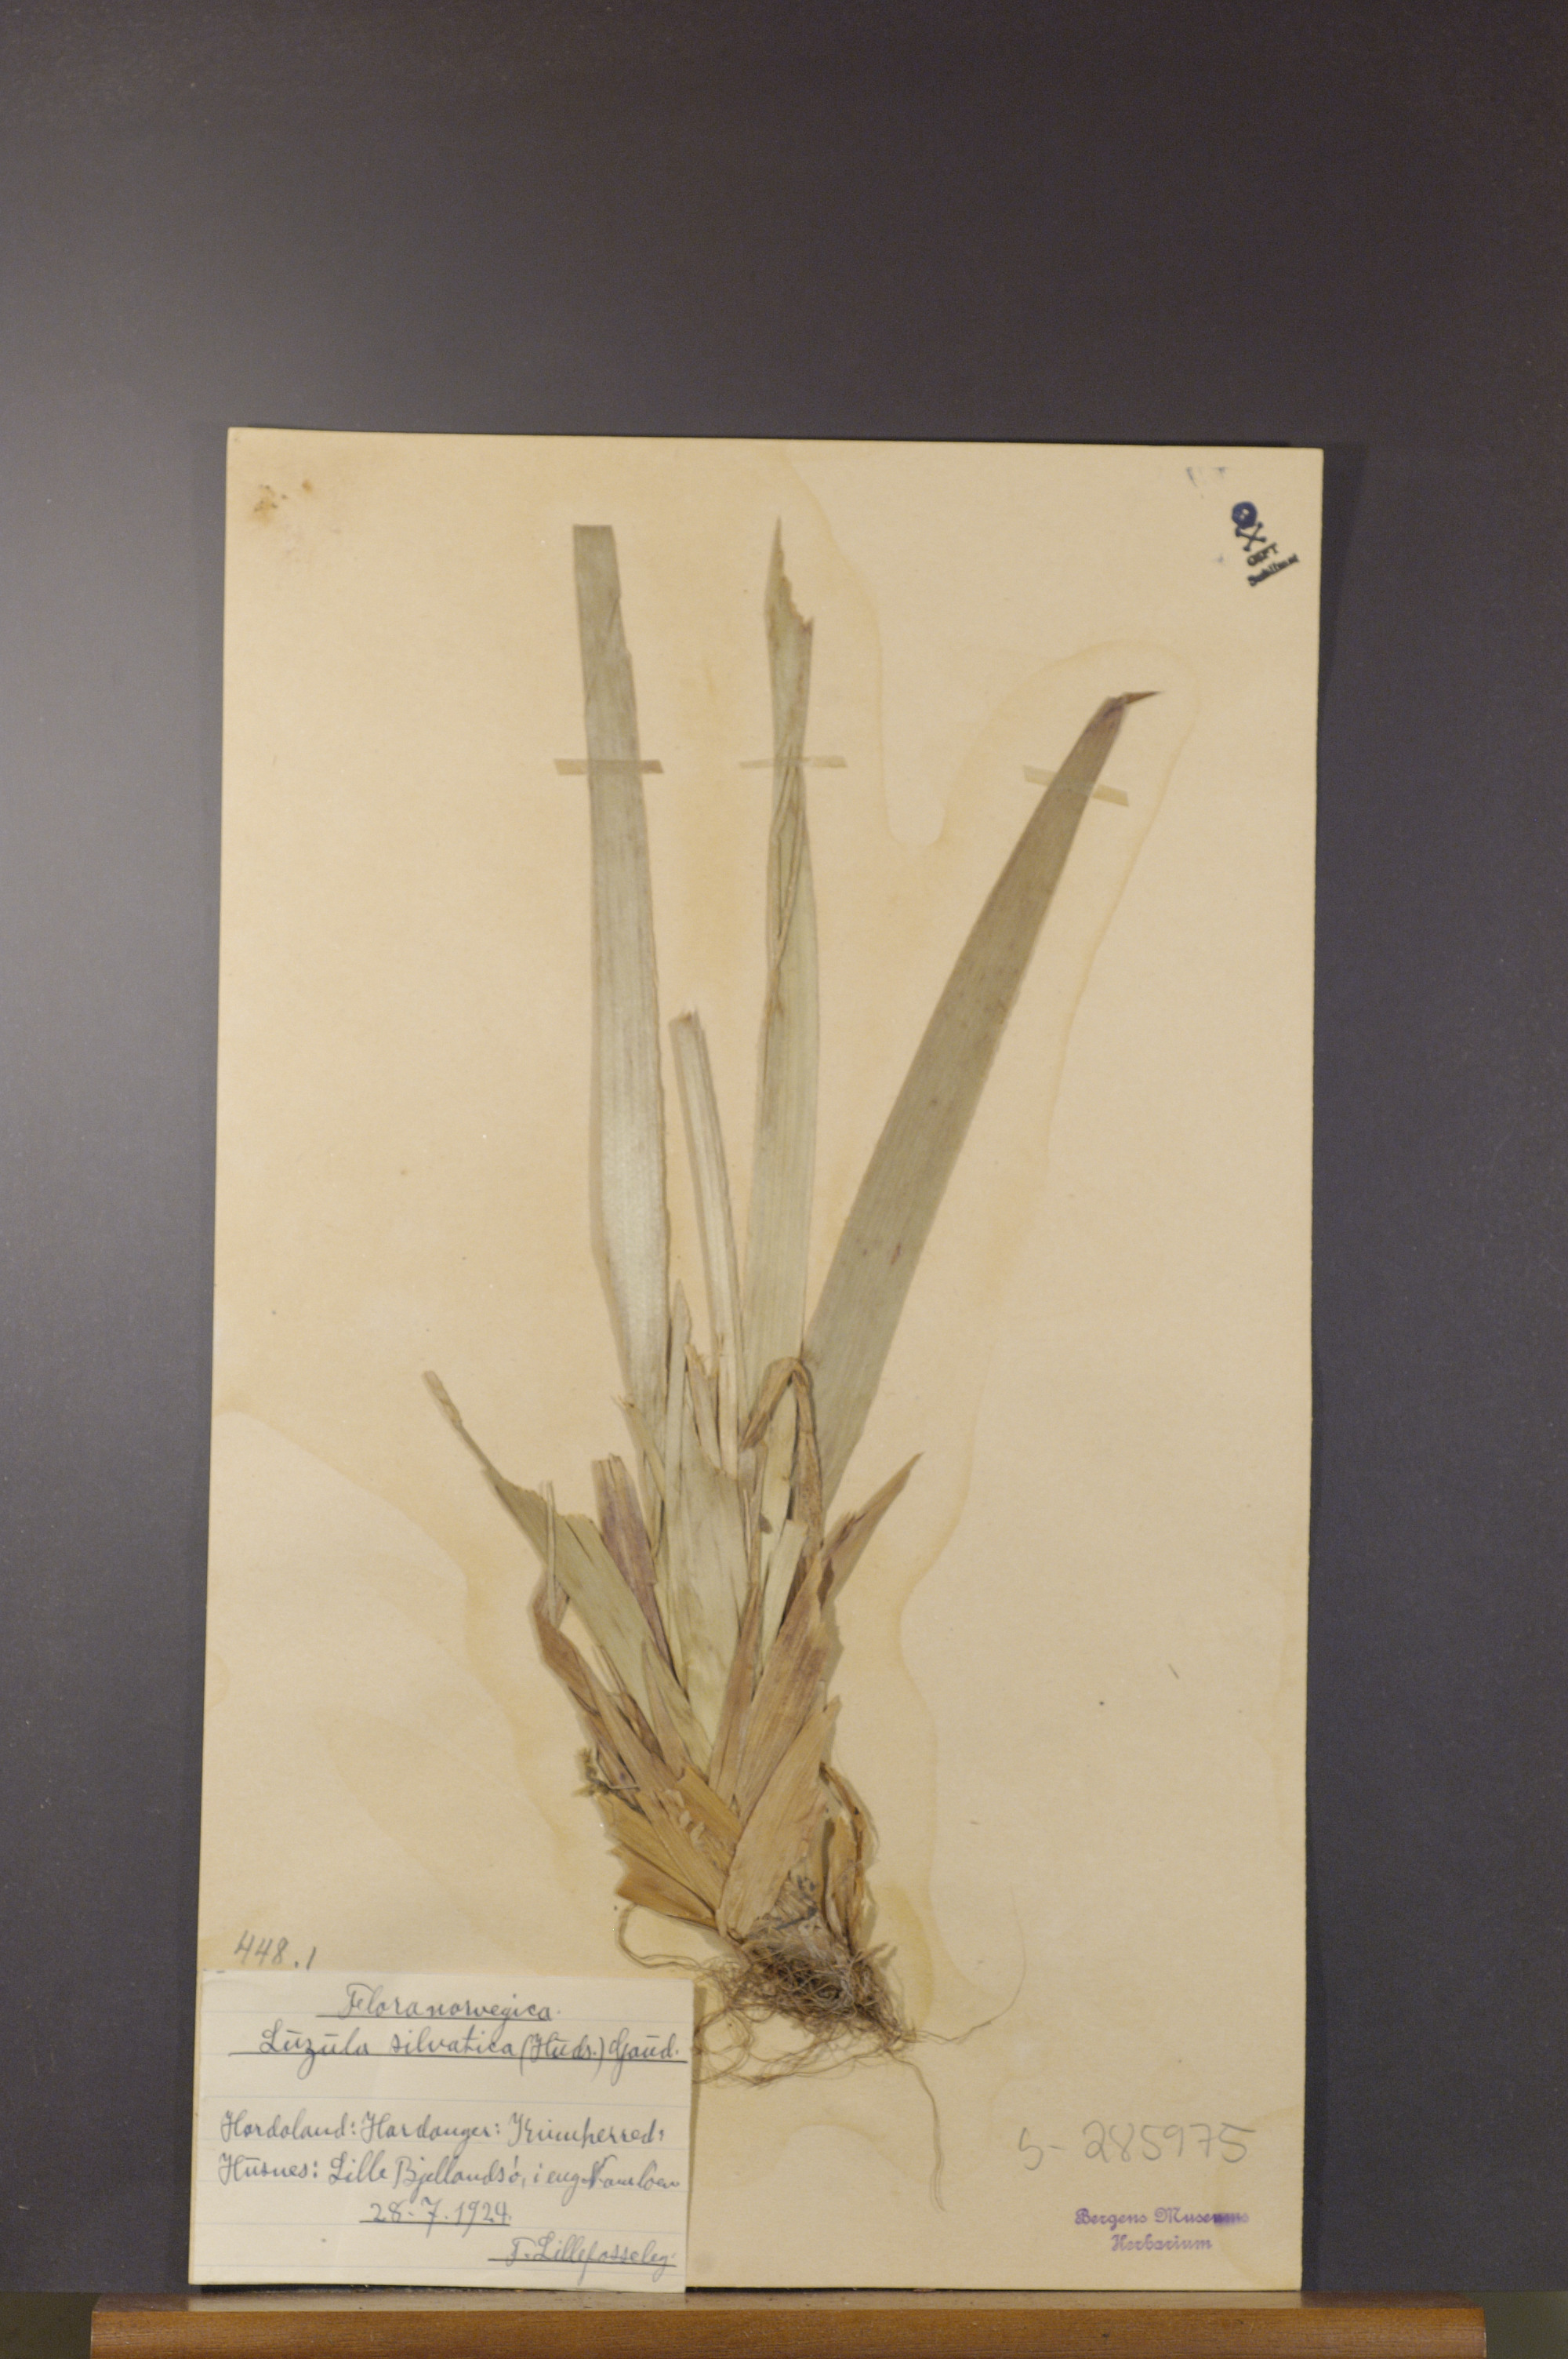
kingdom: Plantae
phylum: Tracheophyta
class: Liliopsida
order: Poales
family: Juncaceae
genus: Luzula
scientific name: Luzula sylvatica
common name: Great wood-rush
